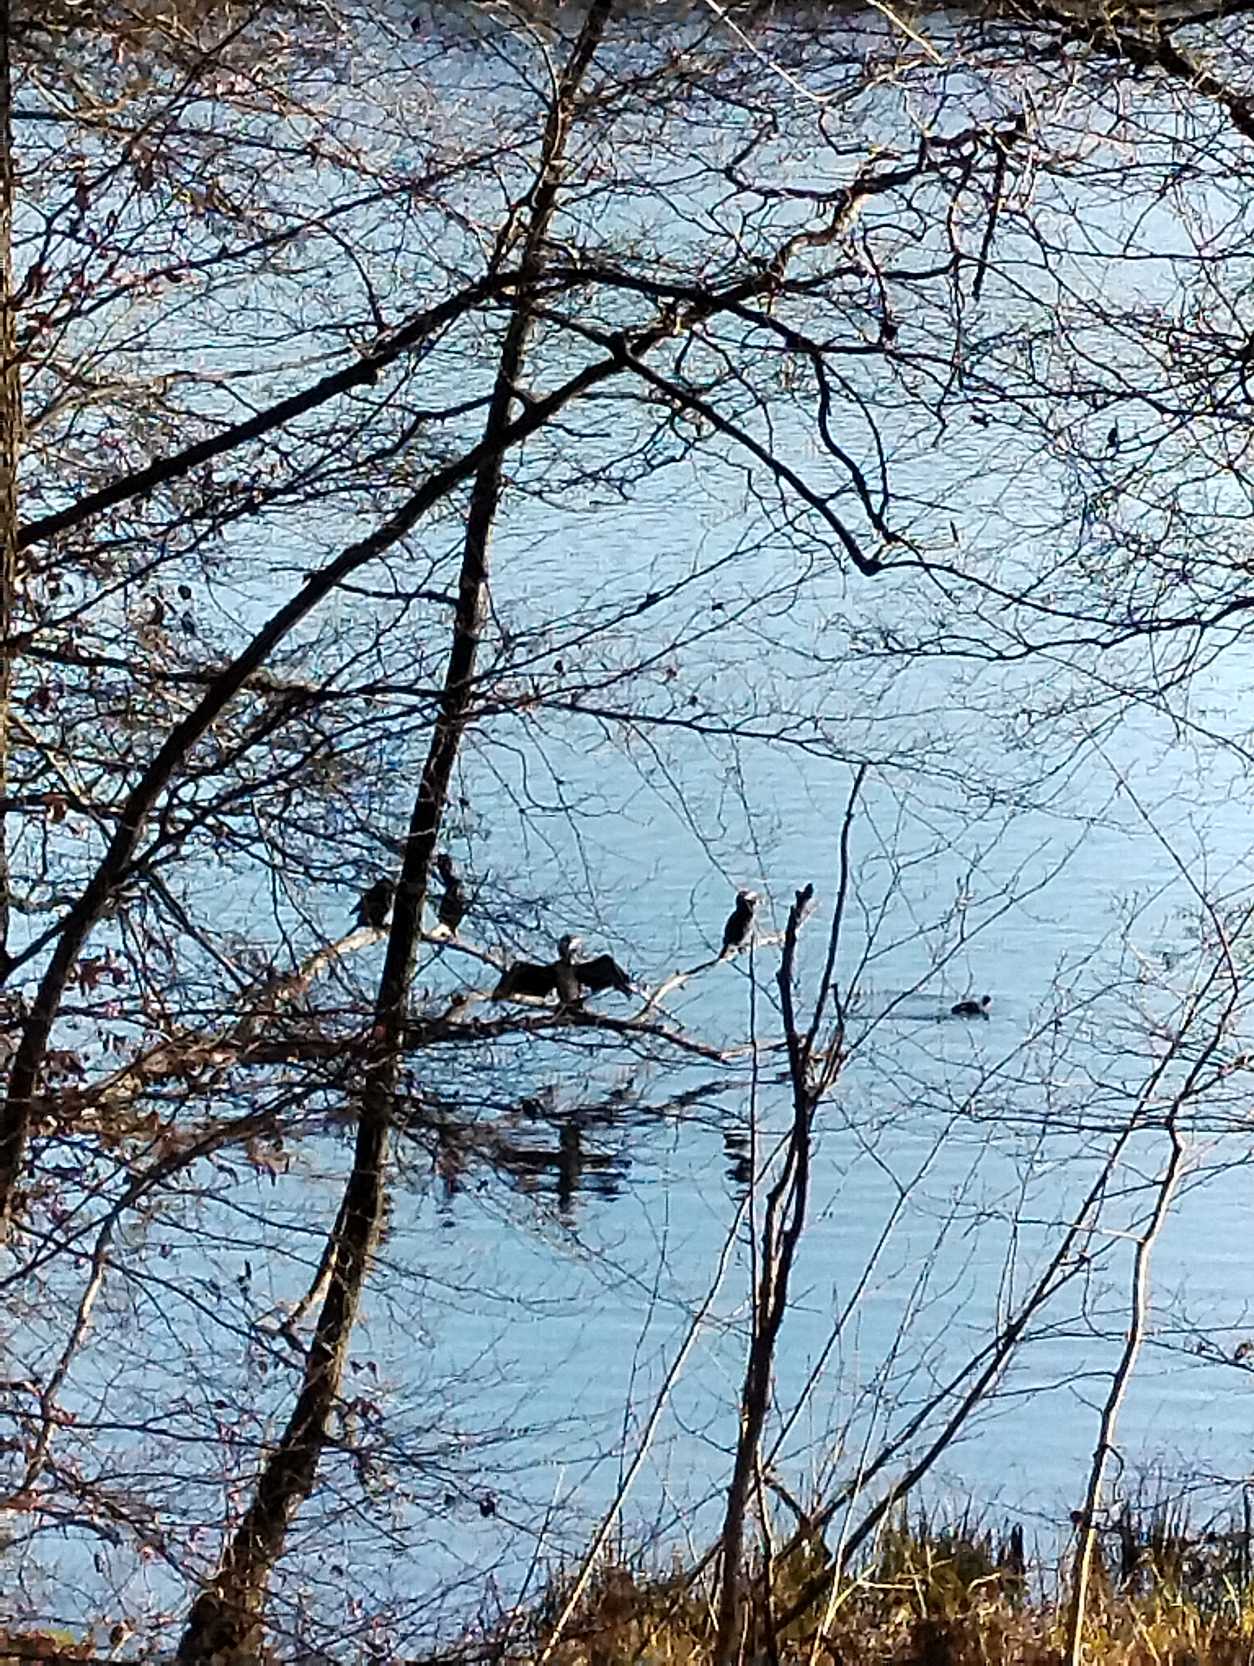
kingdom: Animalia
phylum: Chordata
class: Aves
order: Suliformes
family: Phalacrocoracidae
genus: Phalacrocorax
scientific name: Phalacrocorax carbo
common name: Skarv
